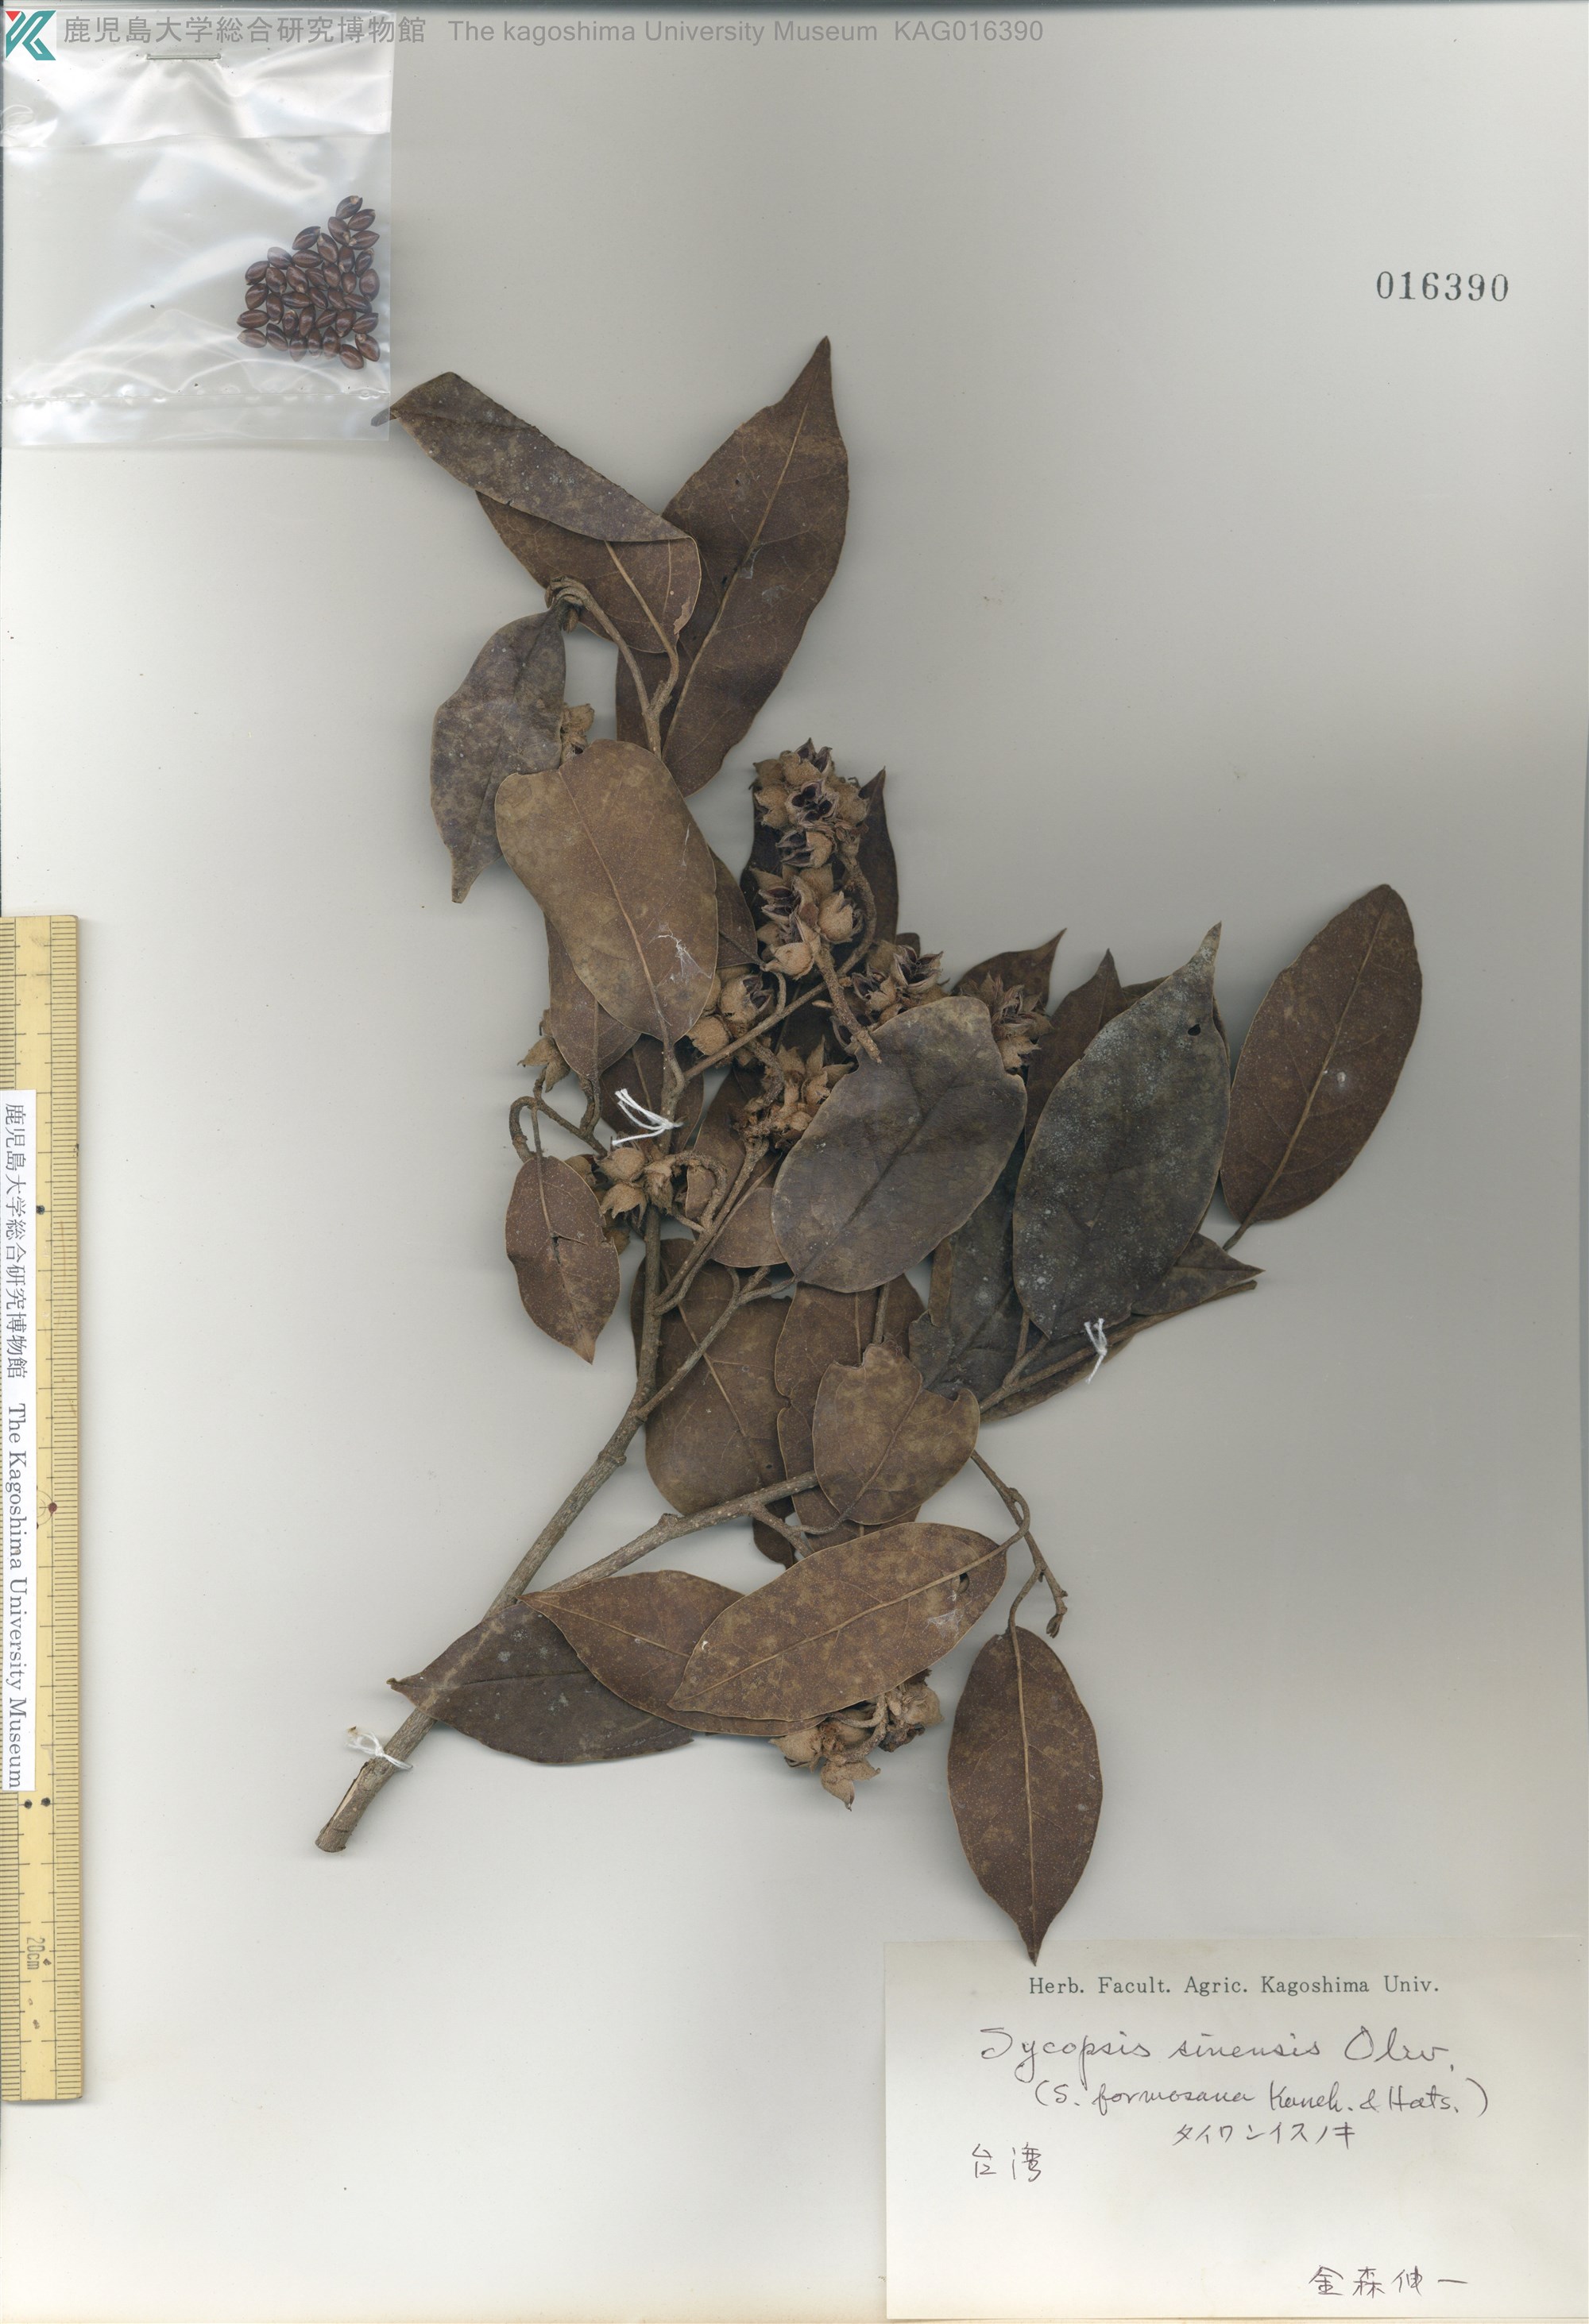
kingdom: Plantae
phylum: Tracheophyta
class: Magnoliopsida
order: Saxifragales
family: Hamamelidaceae
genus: Sycopsis
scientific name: Sycopsis sinensis
